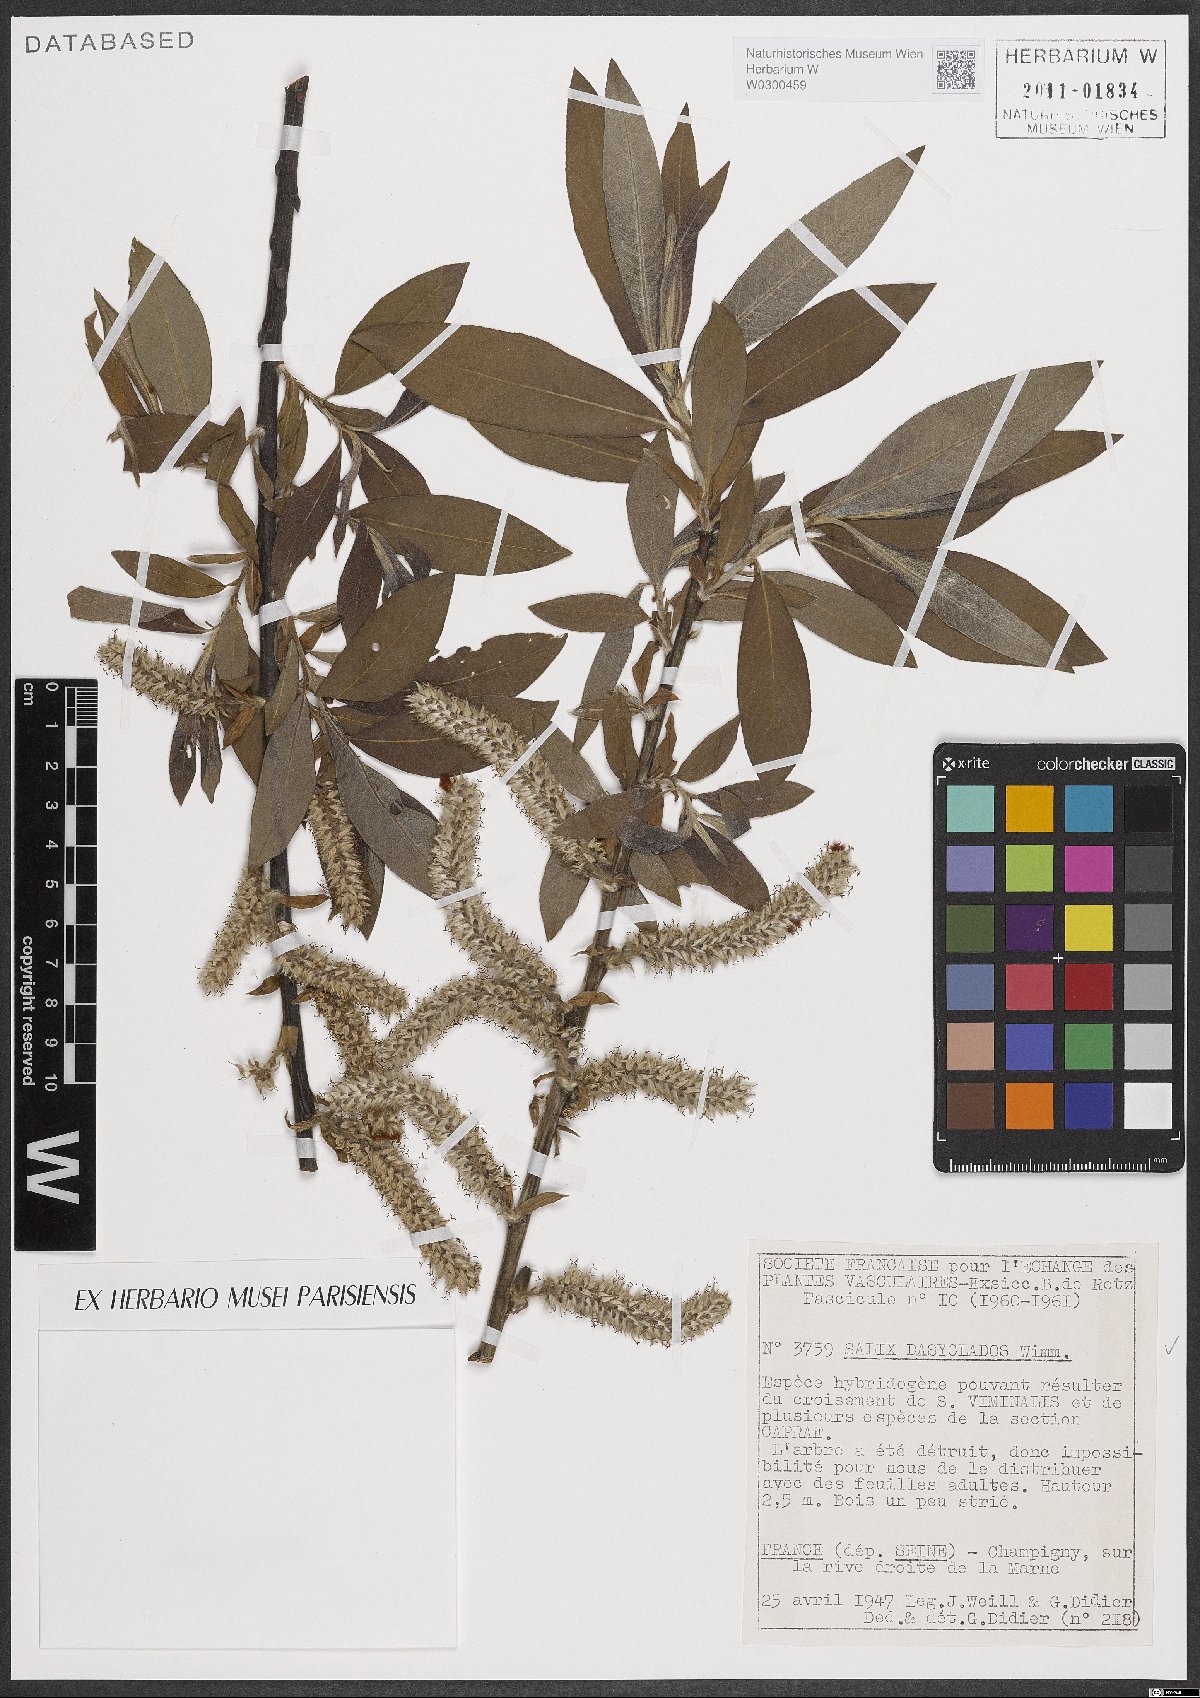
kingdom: Plantae
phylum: Tracheophyta
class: Magnoliopsida
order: Malpighiales
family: Salicaceae
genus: Salix
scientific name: Salix gmelinii
